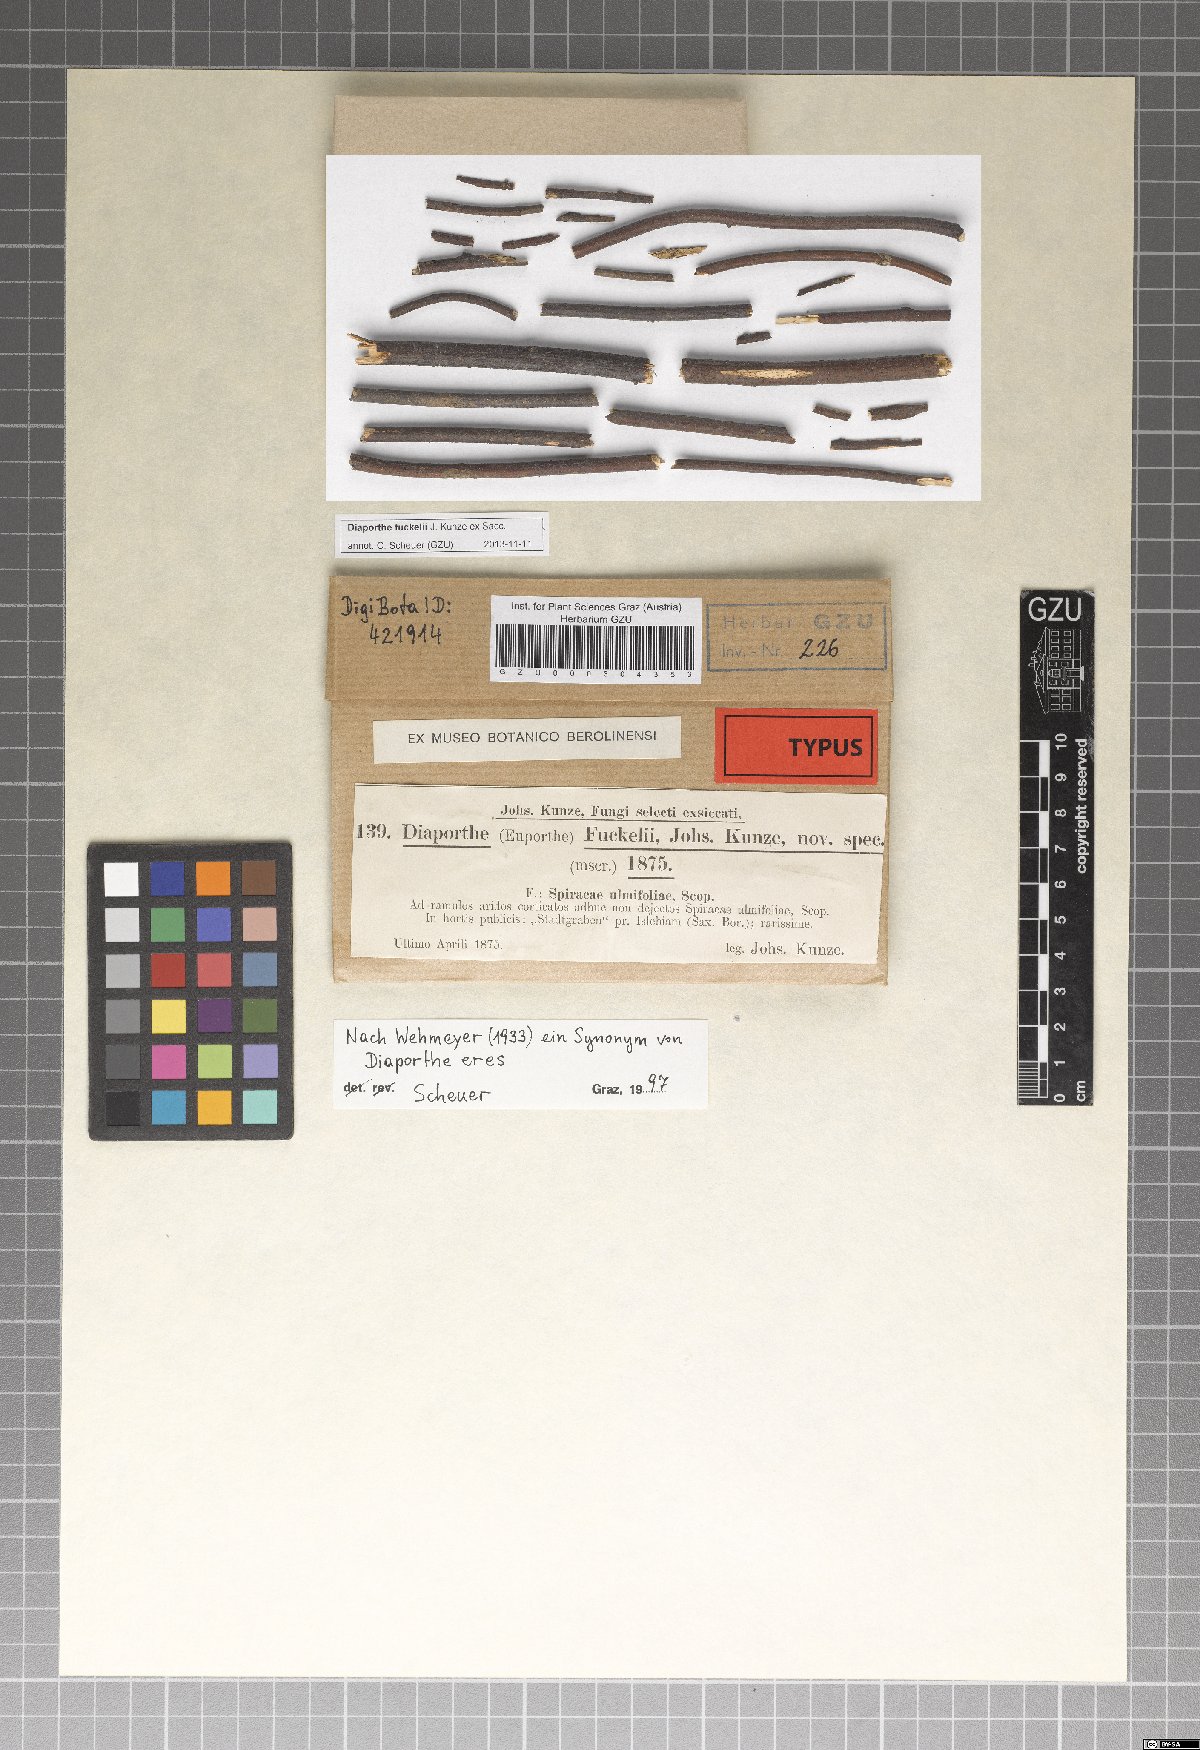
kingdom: Fungi
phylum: Ascomycota
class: Sordariomycetes
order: Diaporthales
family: Valsaceae
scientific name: Valsaceae
